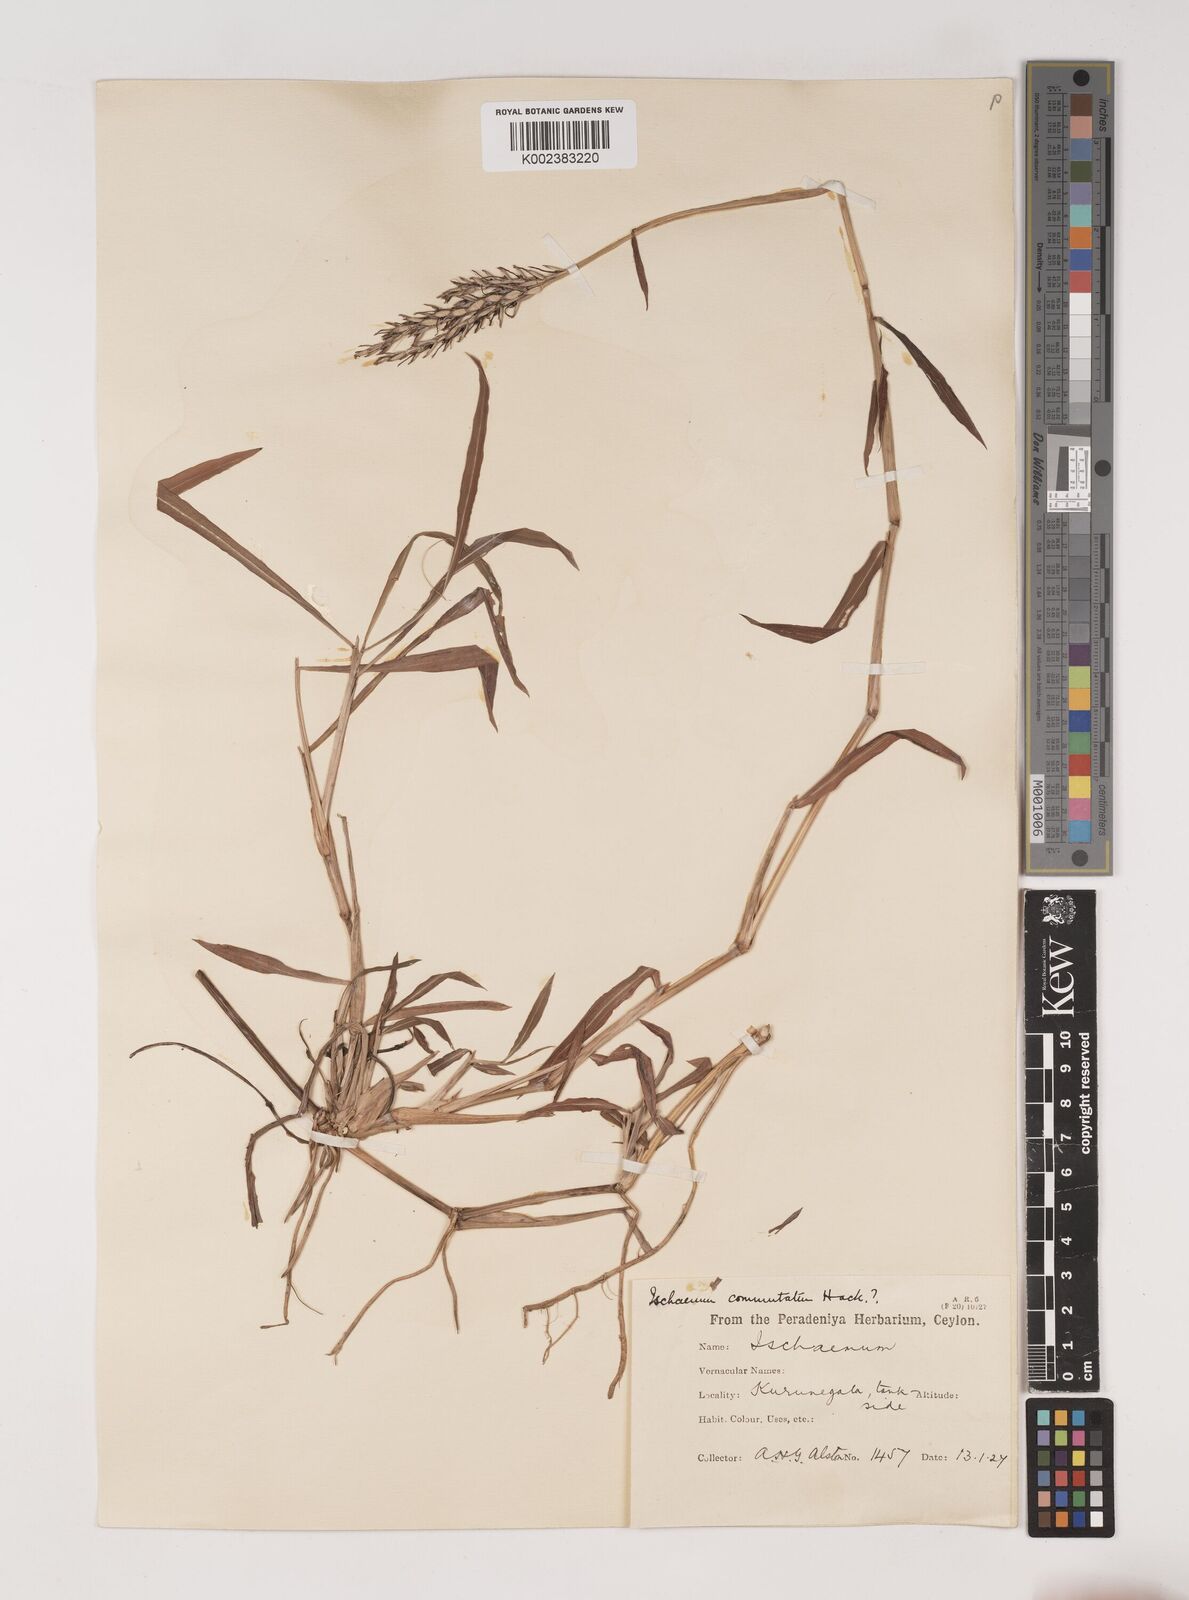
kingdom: Plantae
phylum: Tracheophyta
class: Liliopsida
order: Poales
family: Poaceae
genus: Ischaemum
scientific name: Ischaemum commutatum
